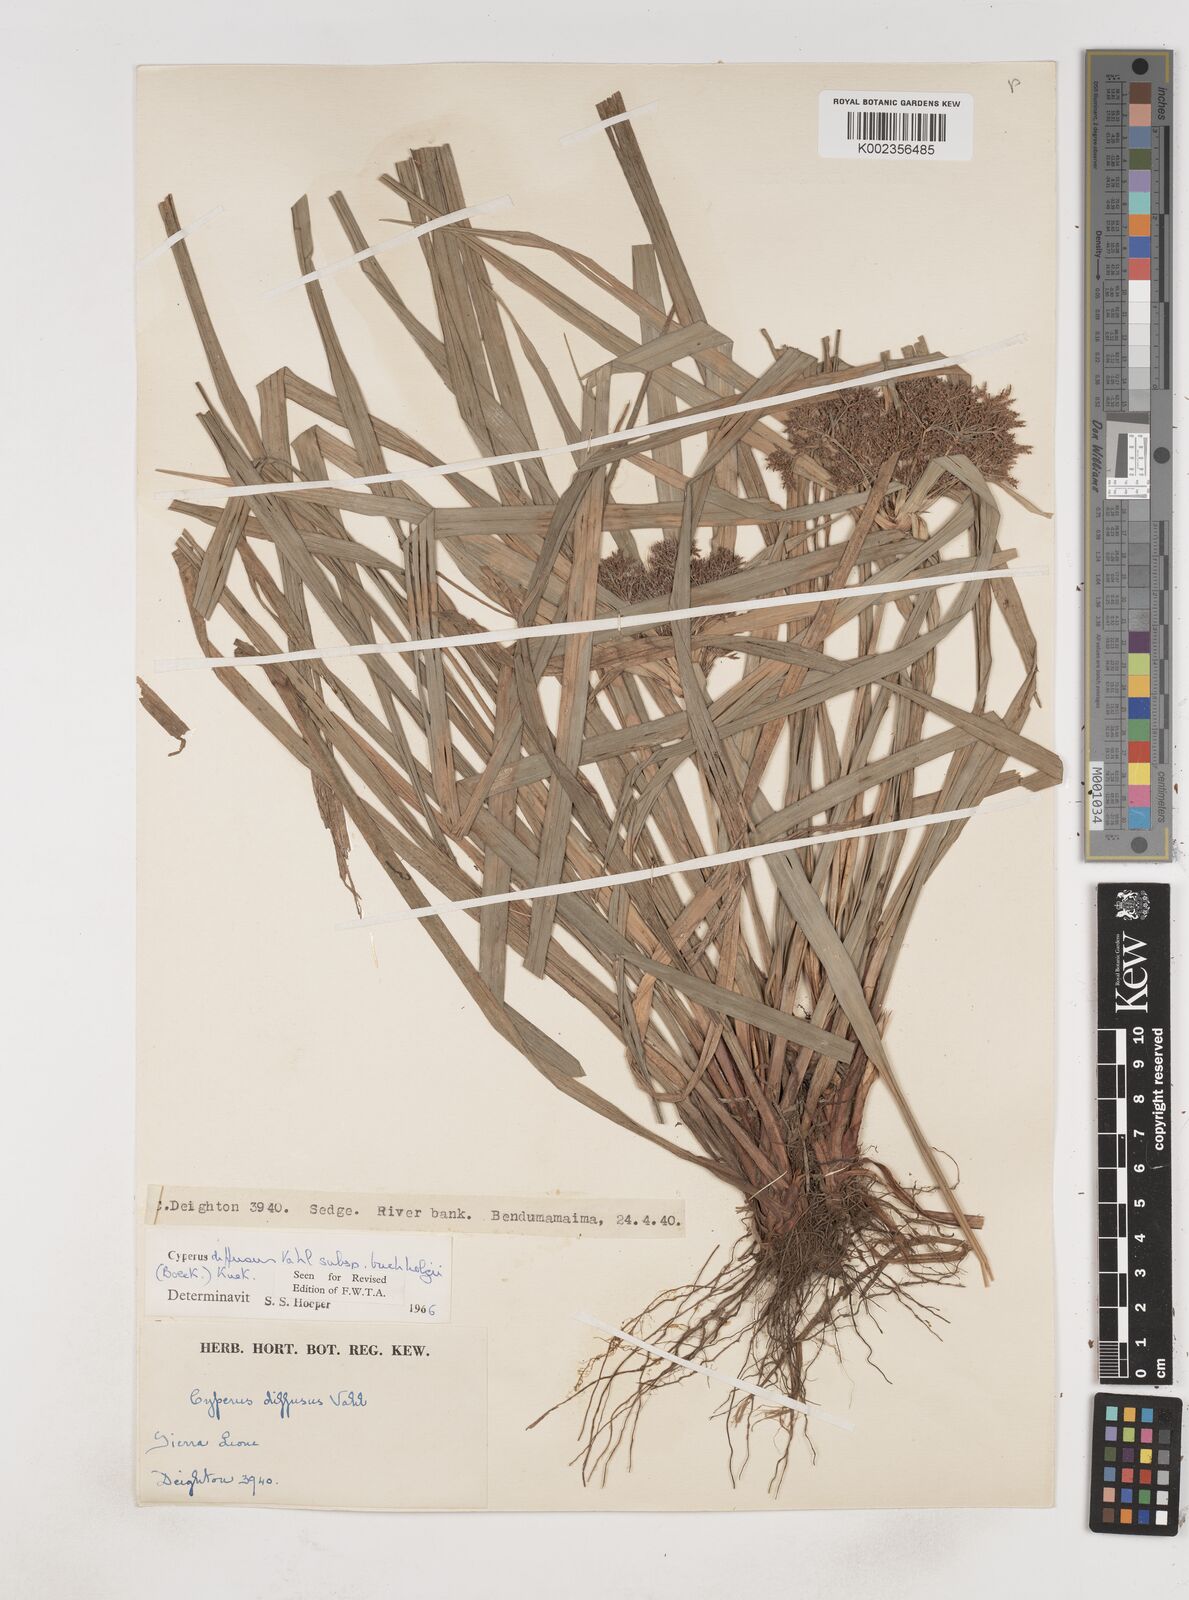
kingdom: Plantae
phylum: Tracheophyta
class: Liliopsida
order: Poales
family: Cyperaceae
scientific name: Cyperaceae
